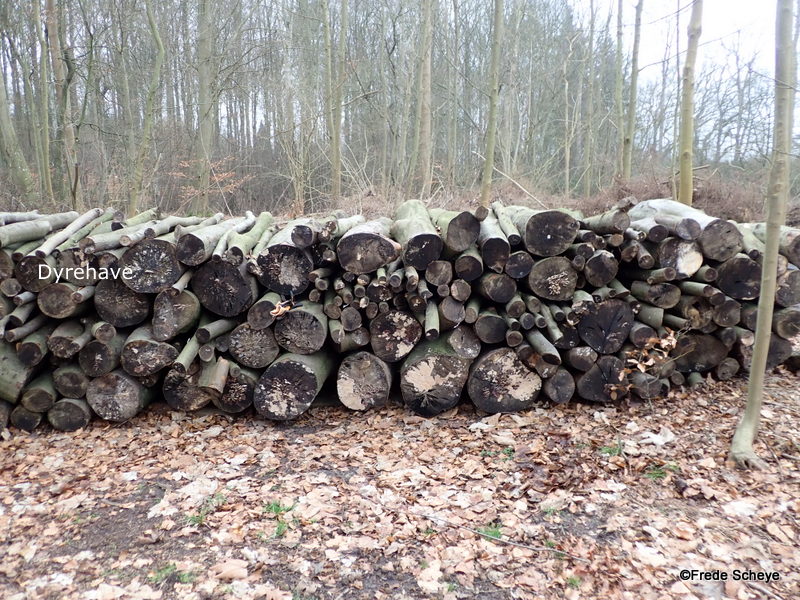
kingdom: Fungi
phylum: Ascomycota
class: Leotiomycetes
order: Helotiales
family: Helotiaceae
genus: Bispora
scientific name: Bispora pallescens
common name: måtte-snitskive
